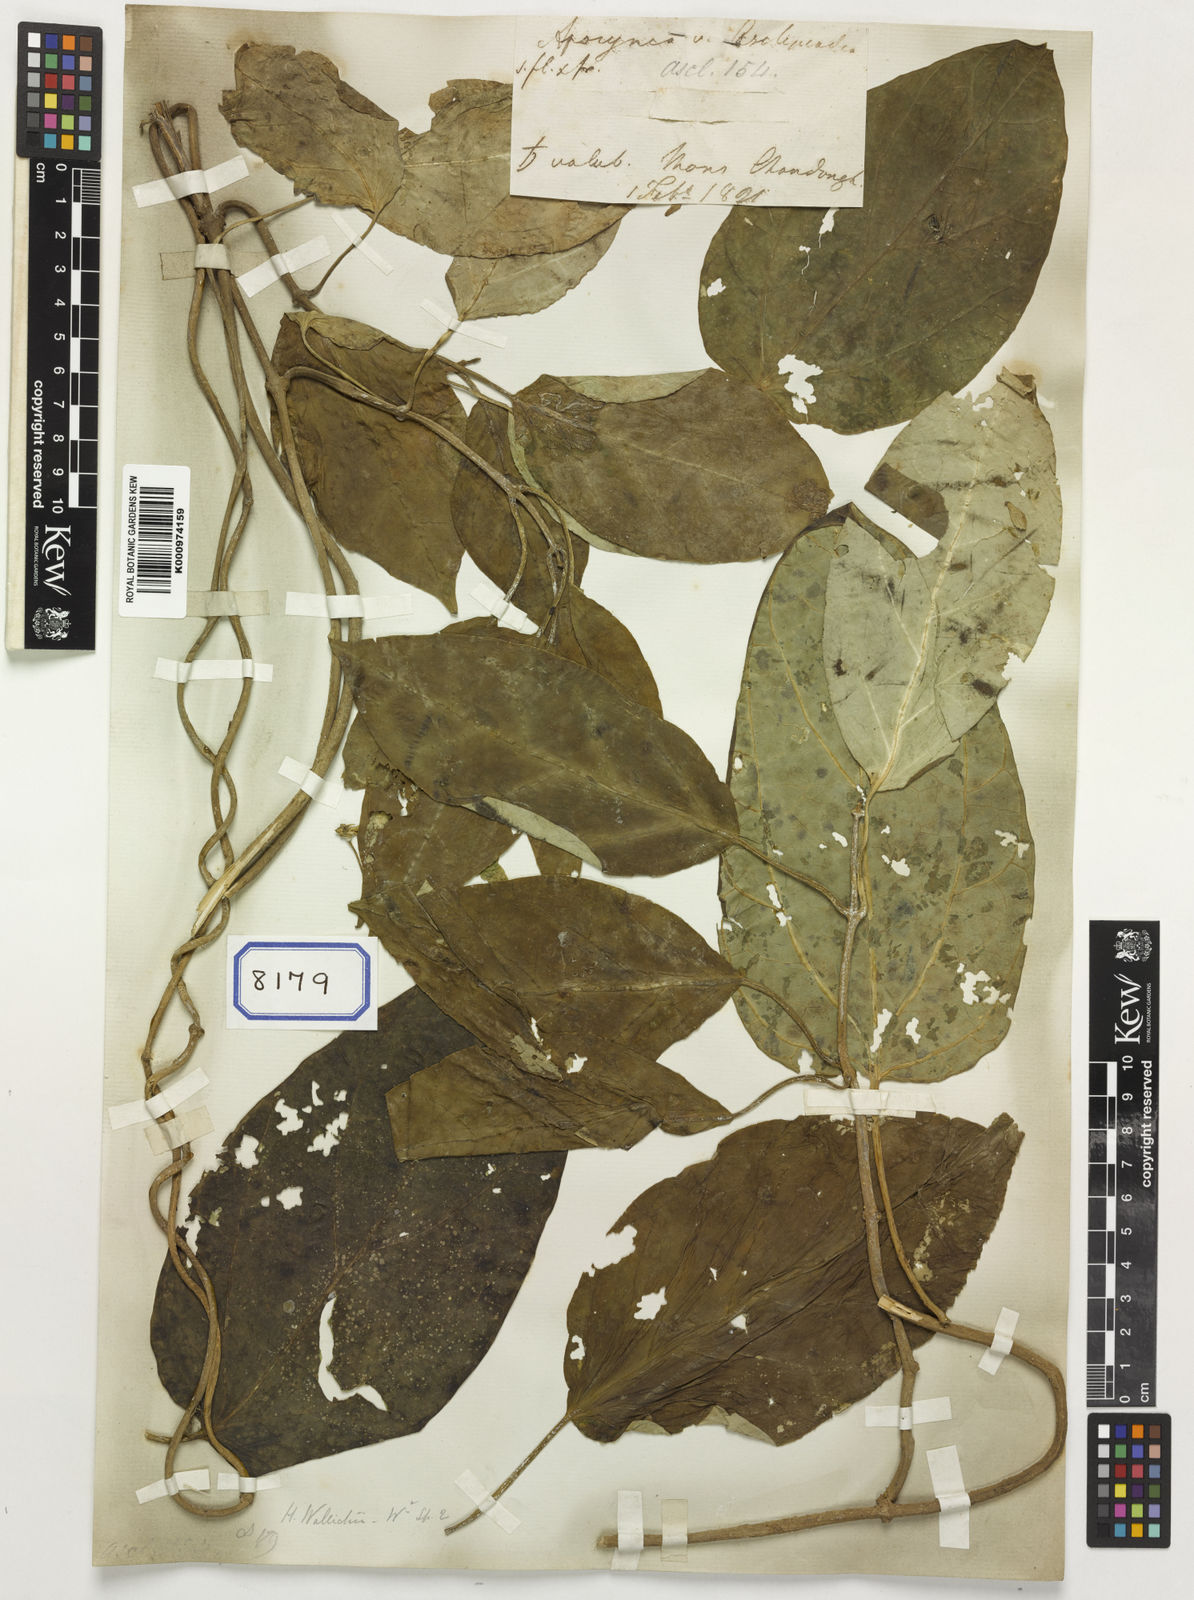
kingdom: Plantae
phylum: Tracheophyta
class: Magnoliopsida
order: Gentianales
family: Apocynaceae
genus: Heterostemma
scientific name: Heterostemma wallichii
